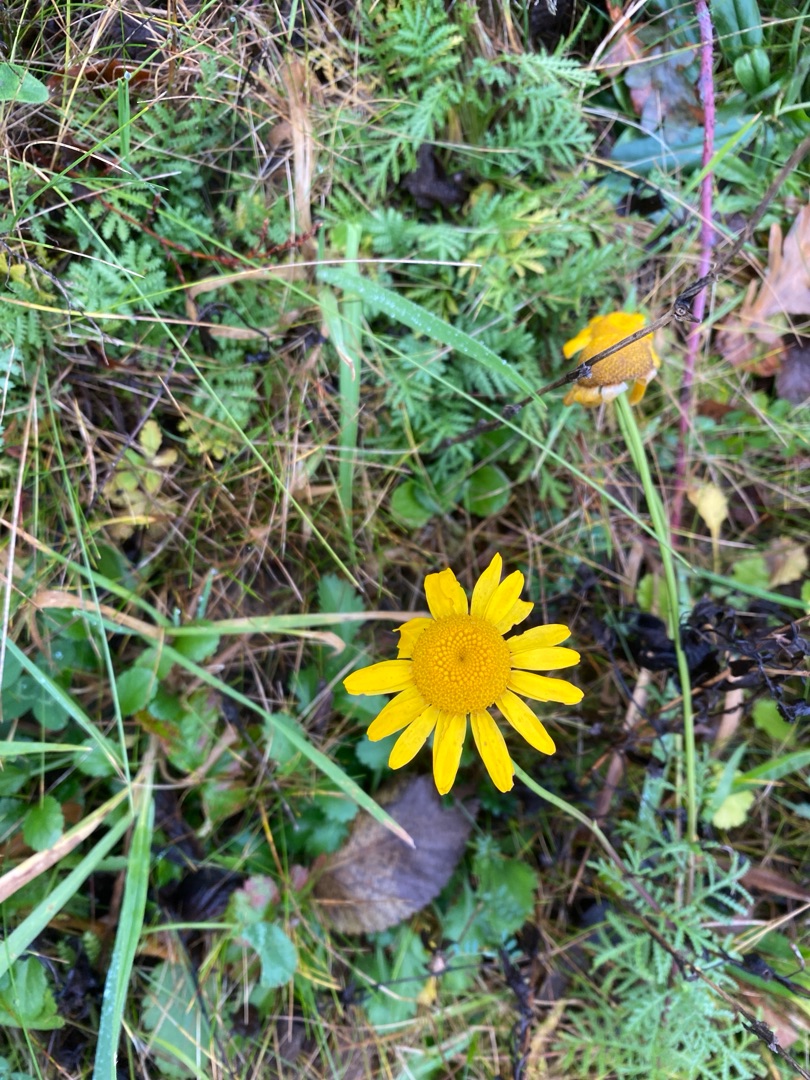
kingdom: Plantae
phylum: Tracheophyta
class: Magnoliopsida
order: Asterales
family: Asteraceae
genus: Cota
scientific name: Cota tinctoria
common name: Farve-gåseurt
